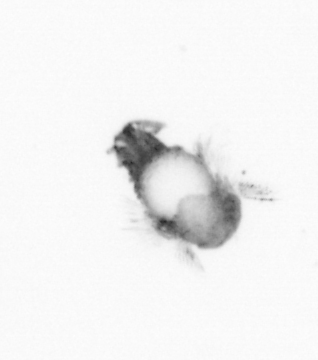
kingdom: Animalia
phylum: Annelida
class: Polychaeta
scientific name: Polychaeta
